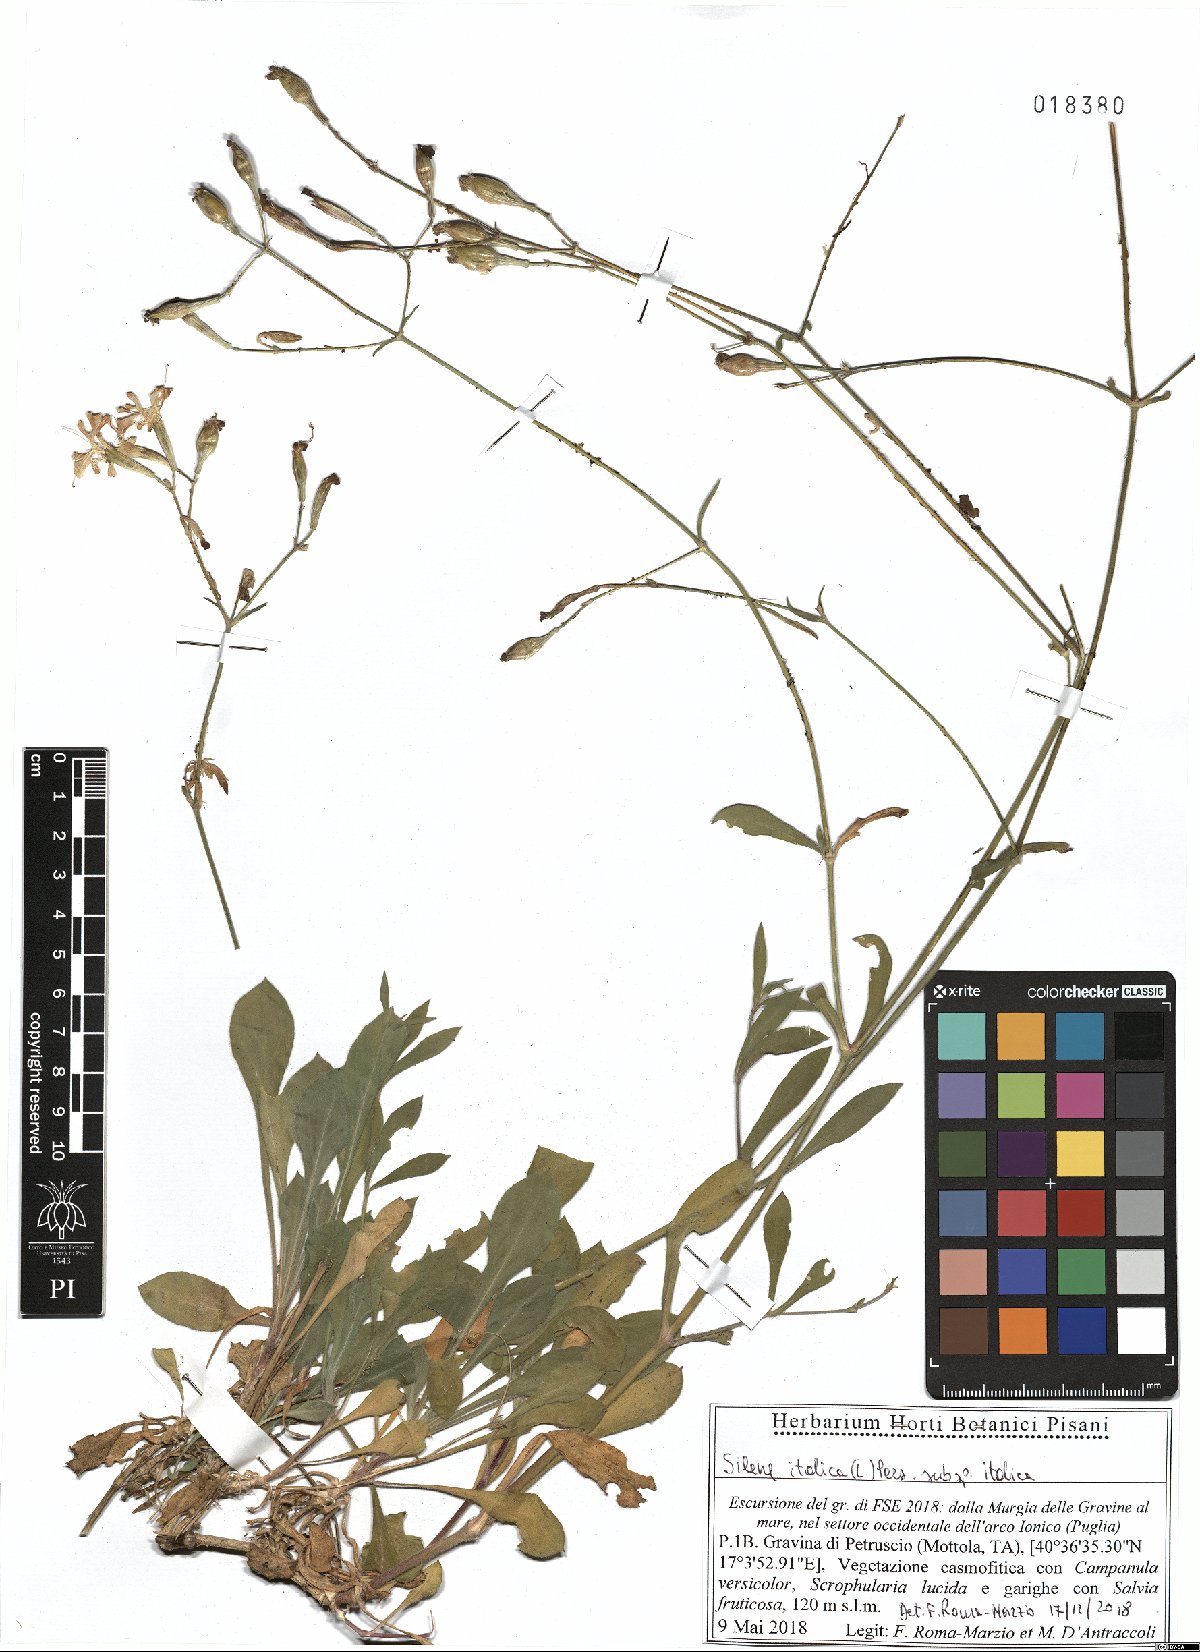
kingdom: Plantae
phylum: Tracheophyta
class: Magnoliopsida
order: Caryophyllales
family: Caryophyllaceae
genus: Silene
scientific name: Silene italica
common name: Italian catchfly
